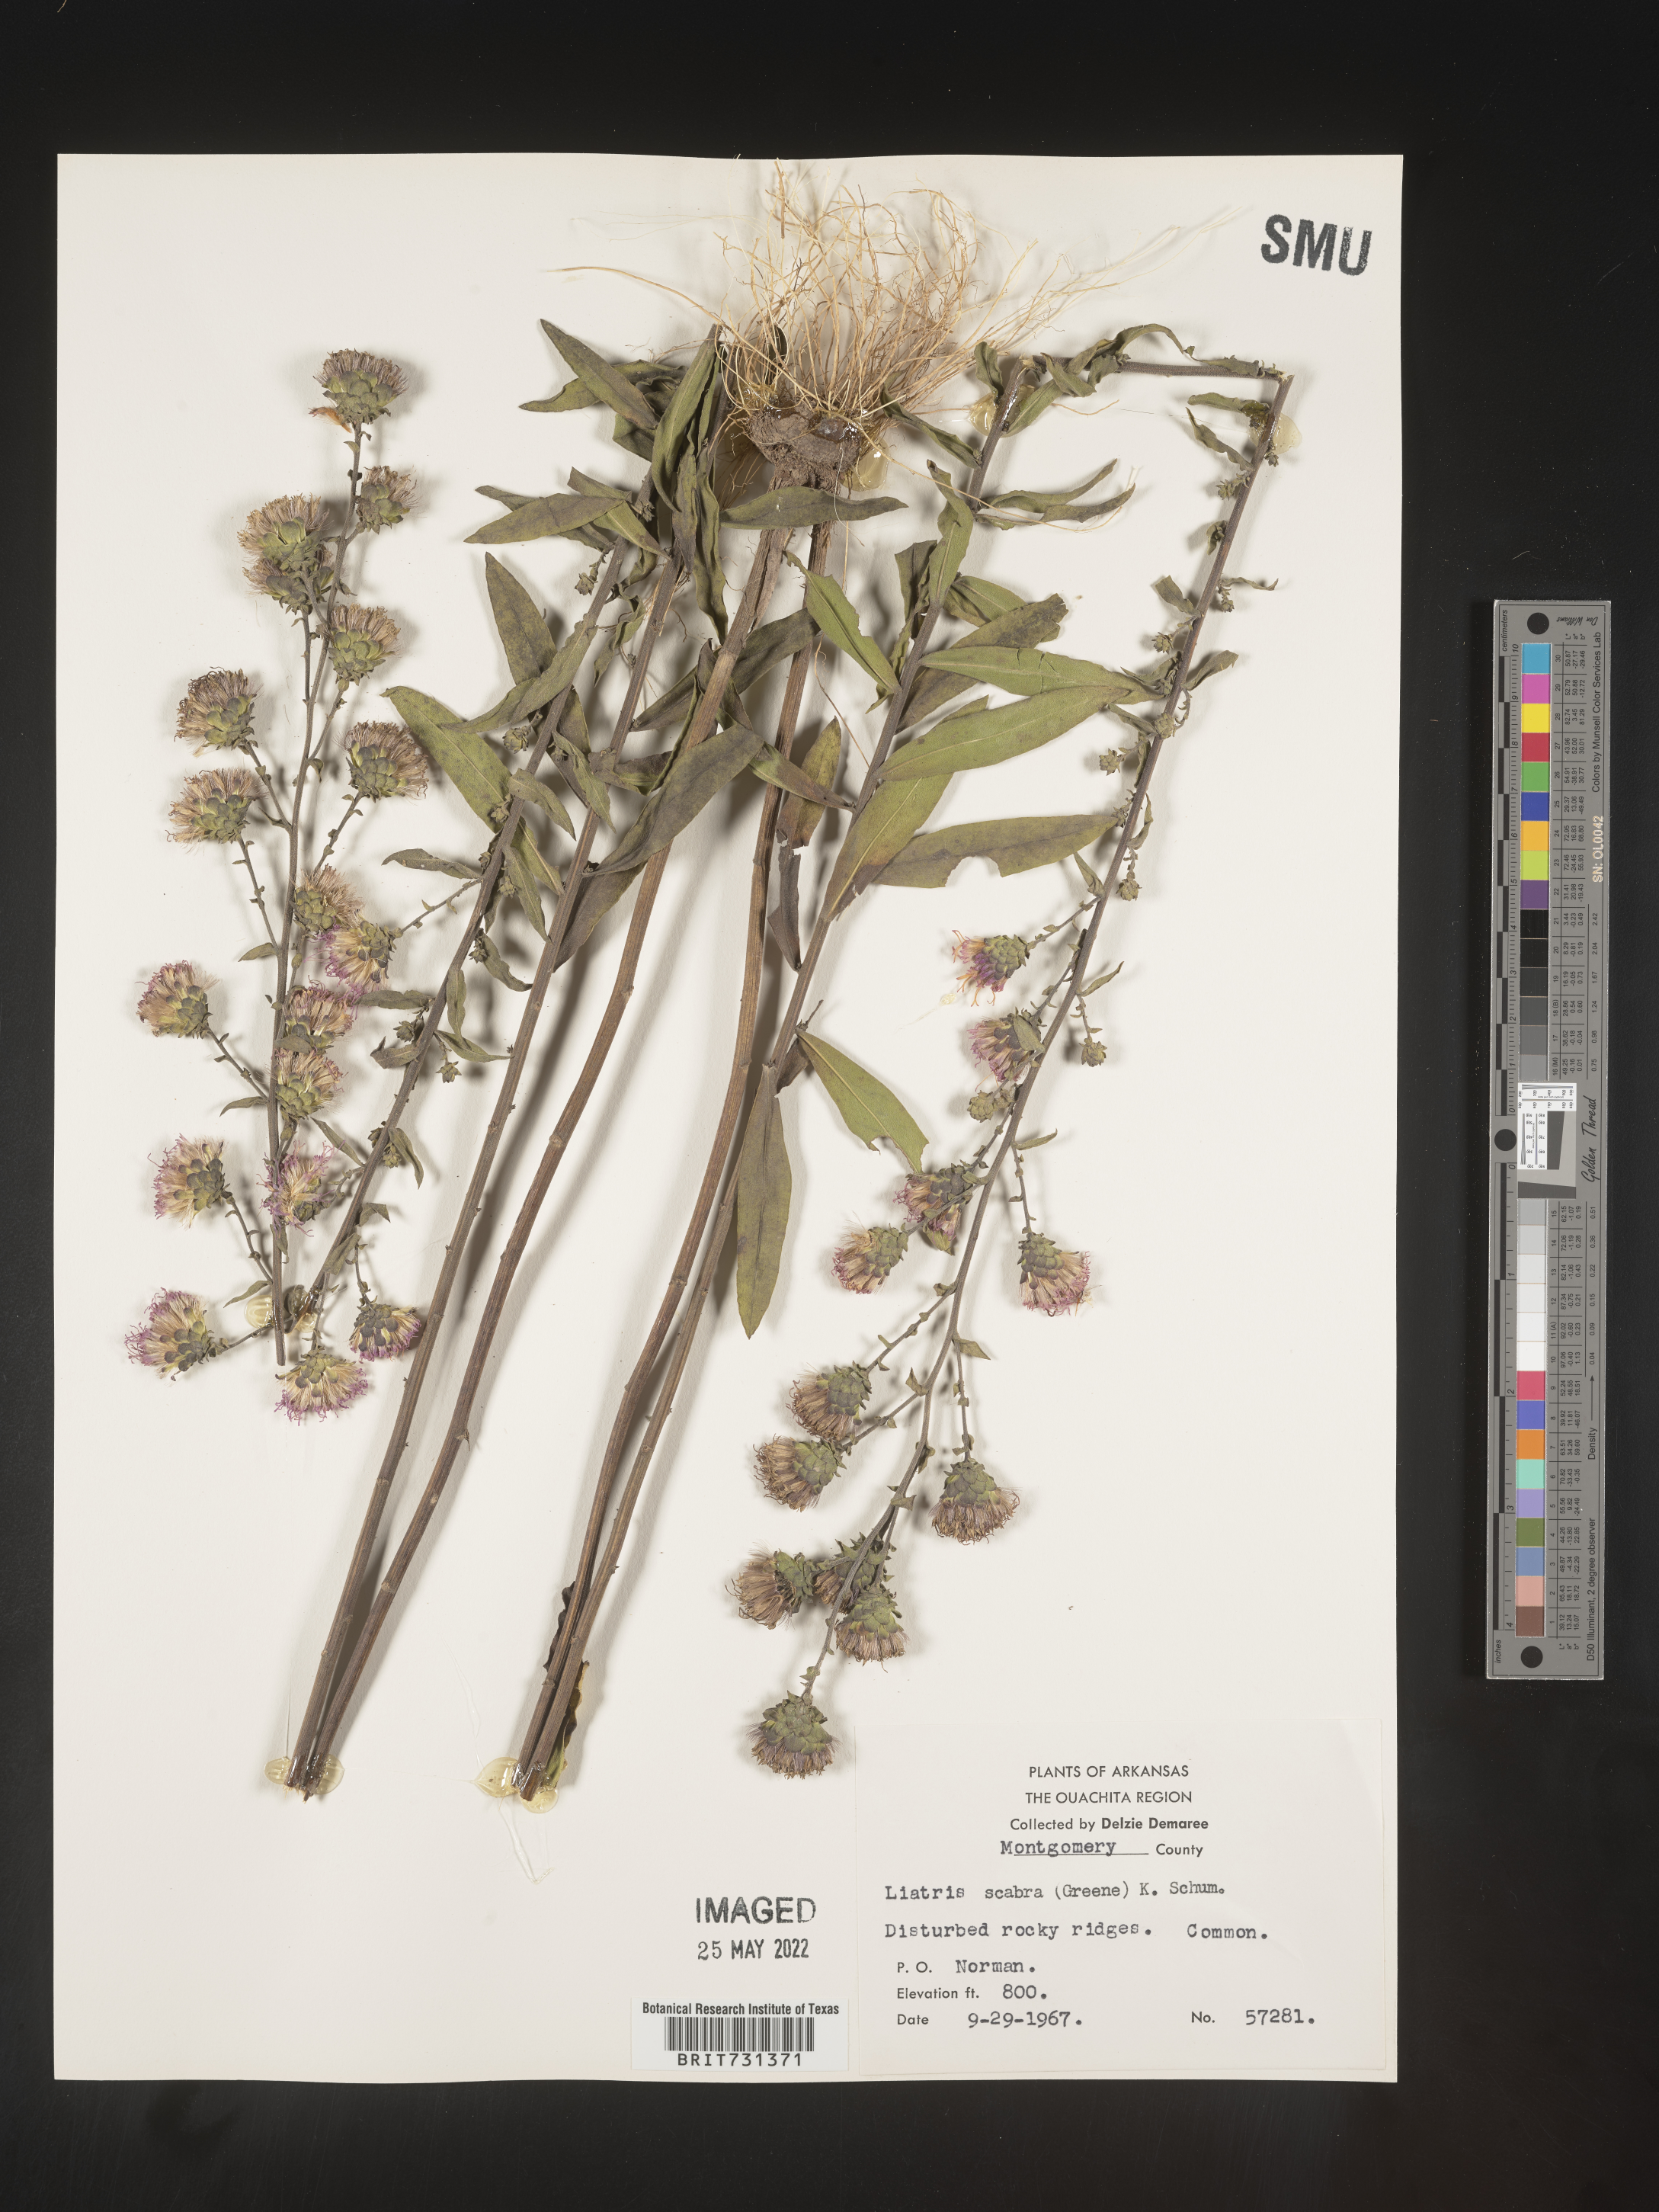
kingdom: Plantae
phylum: Tracheophyta
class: Magnoliopsida
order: Asterales
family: Asteraceae
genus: Liatris
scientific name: Liatris squarrulosa
